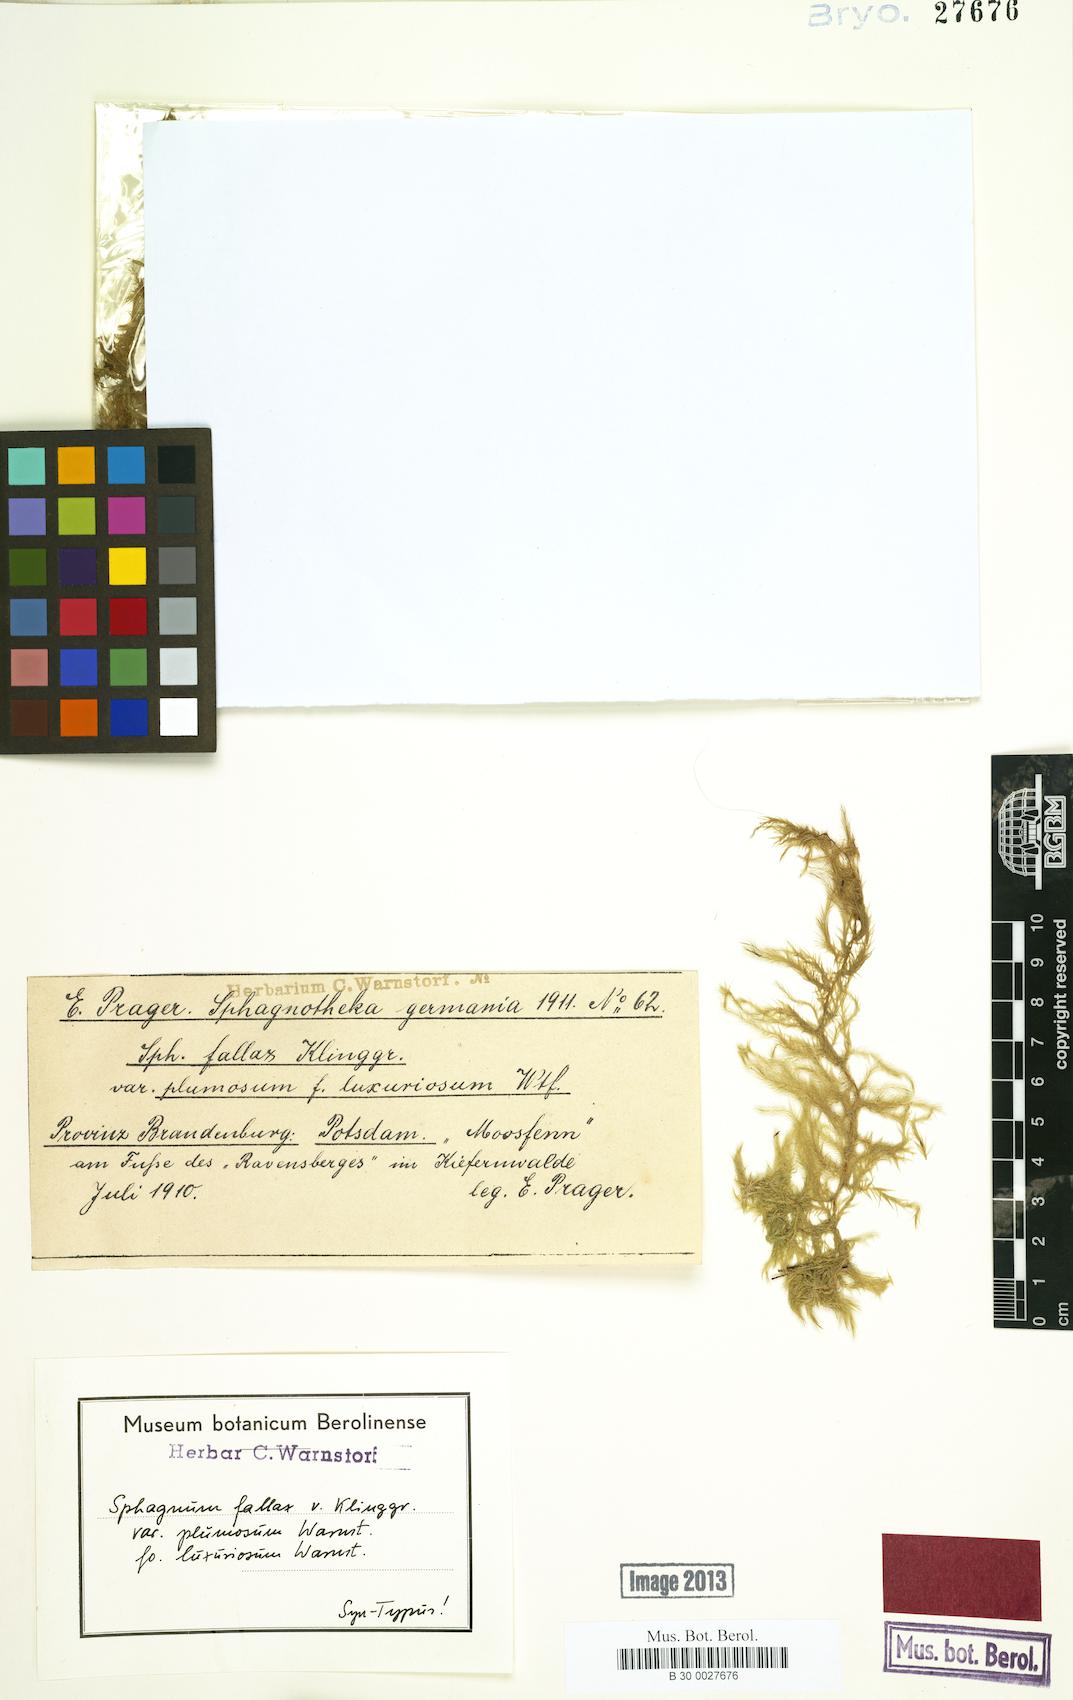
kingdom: Plantae
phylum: Bryophyta
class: Sphagnopsida
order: Sphagnales
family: Sphagnaceae
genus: Sphagnum
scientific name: Sphagnum fallax
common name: Flat-top peat moss
